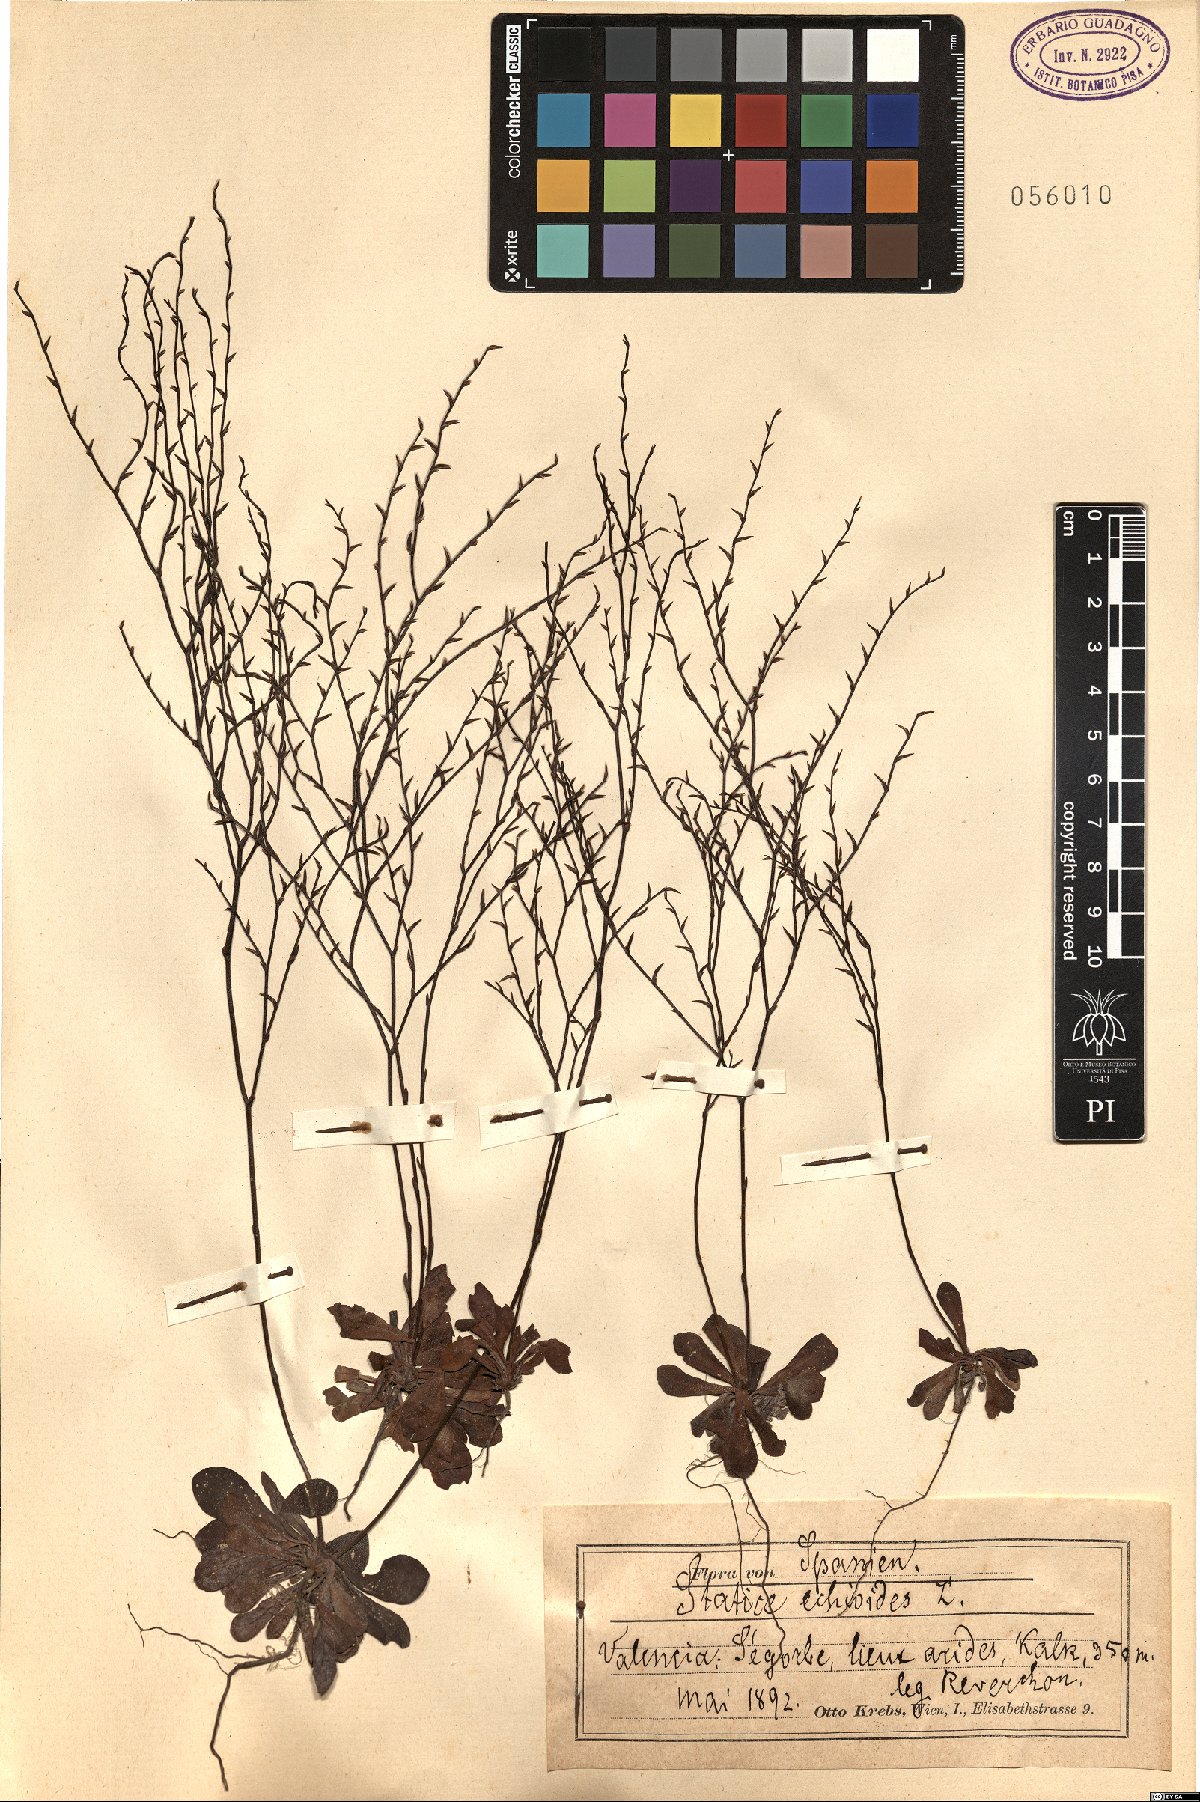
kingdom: Plantae
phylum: Tracheophyta
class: Magnoliopsida
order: Caryophyllales
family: Plumbaginaceae
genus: Limonium
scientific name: Limonium echioides
